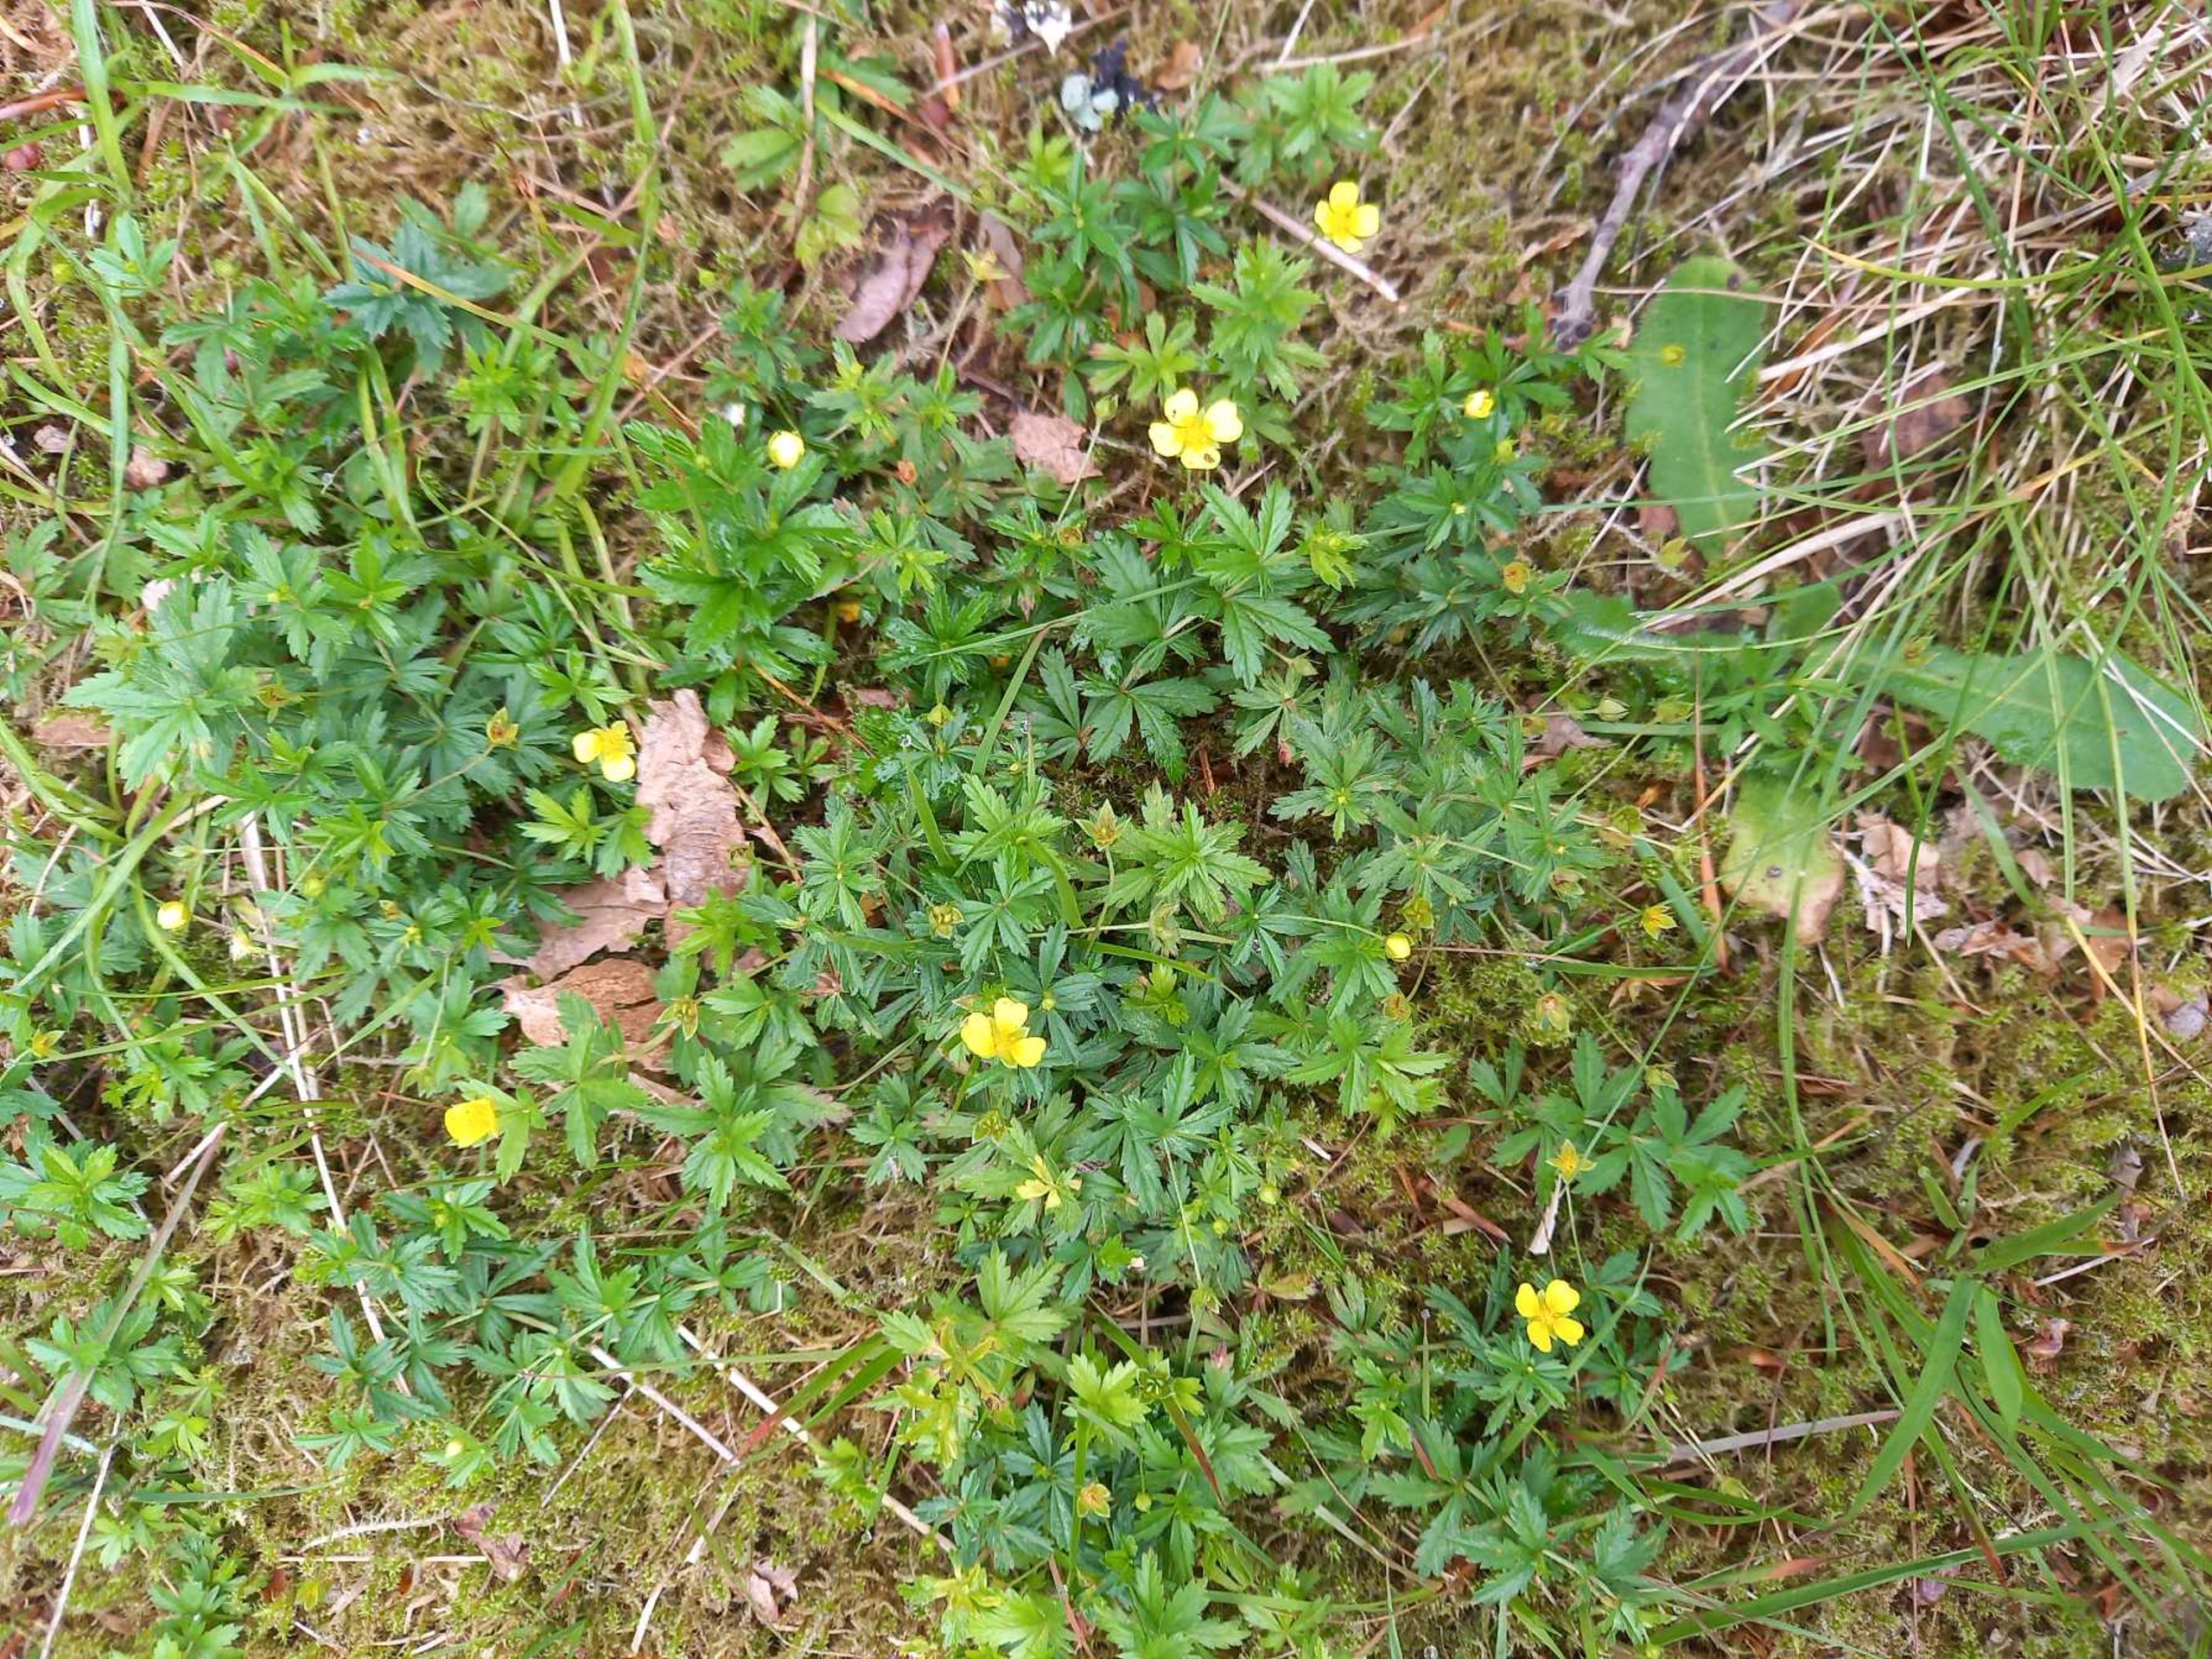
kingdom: Plantae
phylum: Tracheophyta
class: Magnoliopsida
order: Rosales
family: Rosaceae
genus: Potentilla
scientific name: Potentilla erecta
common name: Tormentil
